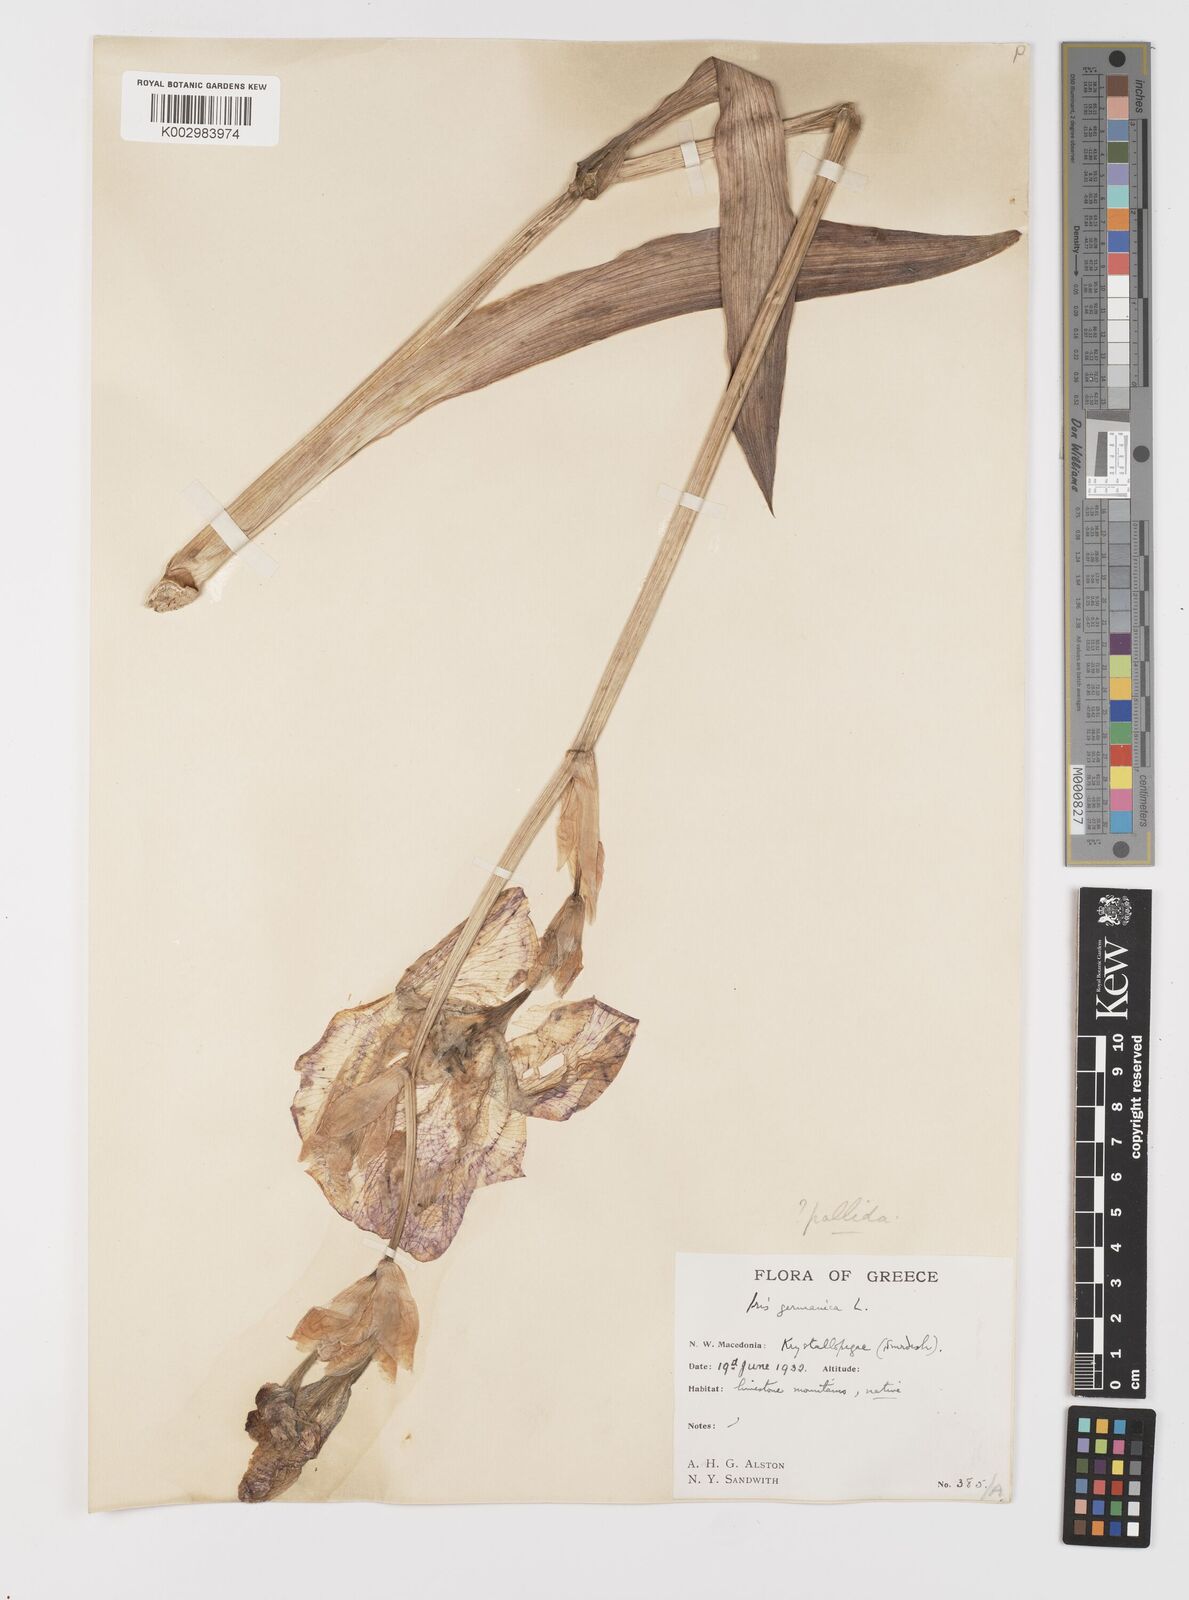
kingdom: Plantae
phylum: Tracheophyta
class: Liliopsida
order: Asparagales
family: Iridaceae
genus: Iris
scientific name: Iris germanica
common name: German iris
